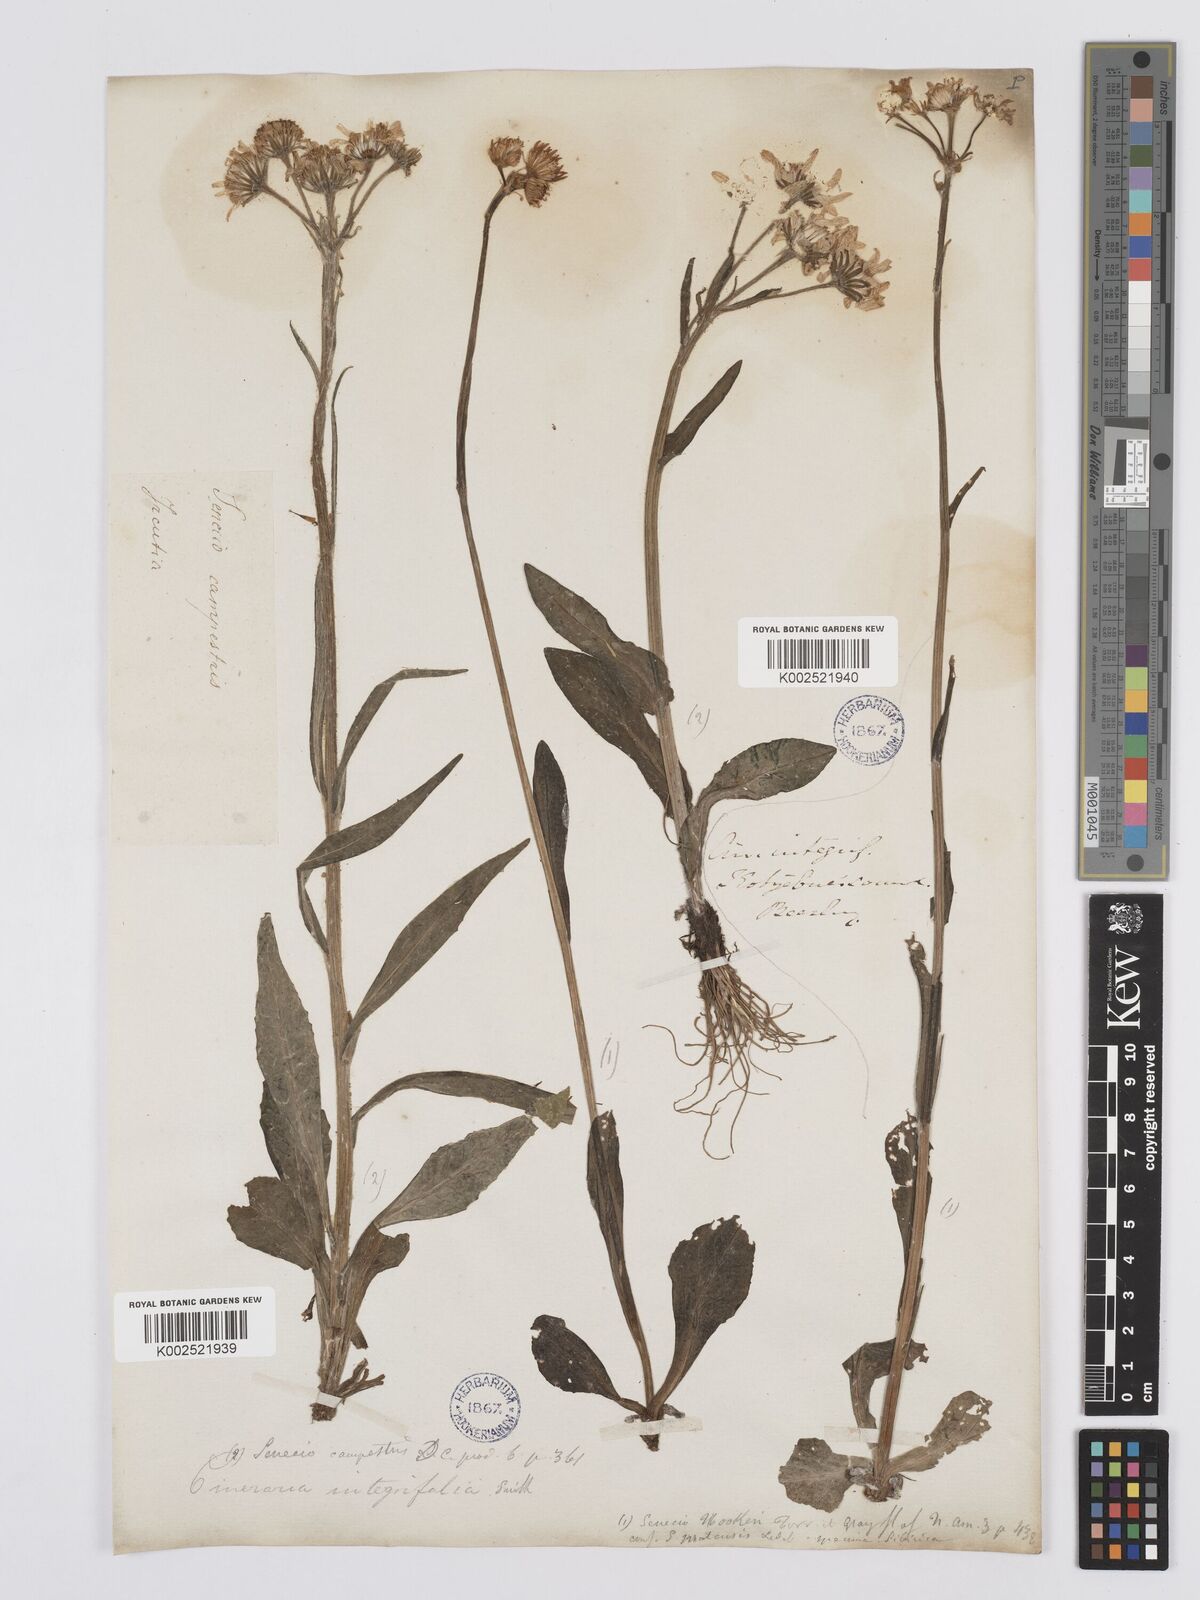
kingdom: Plantae
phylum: Tracheophyta
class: Magnoliopsida
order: Asterales
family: Asteraceae
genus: Tephroseris
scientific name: Tephroseris integrifolia
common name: Field fleawort
